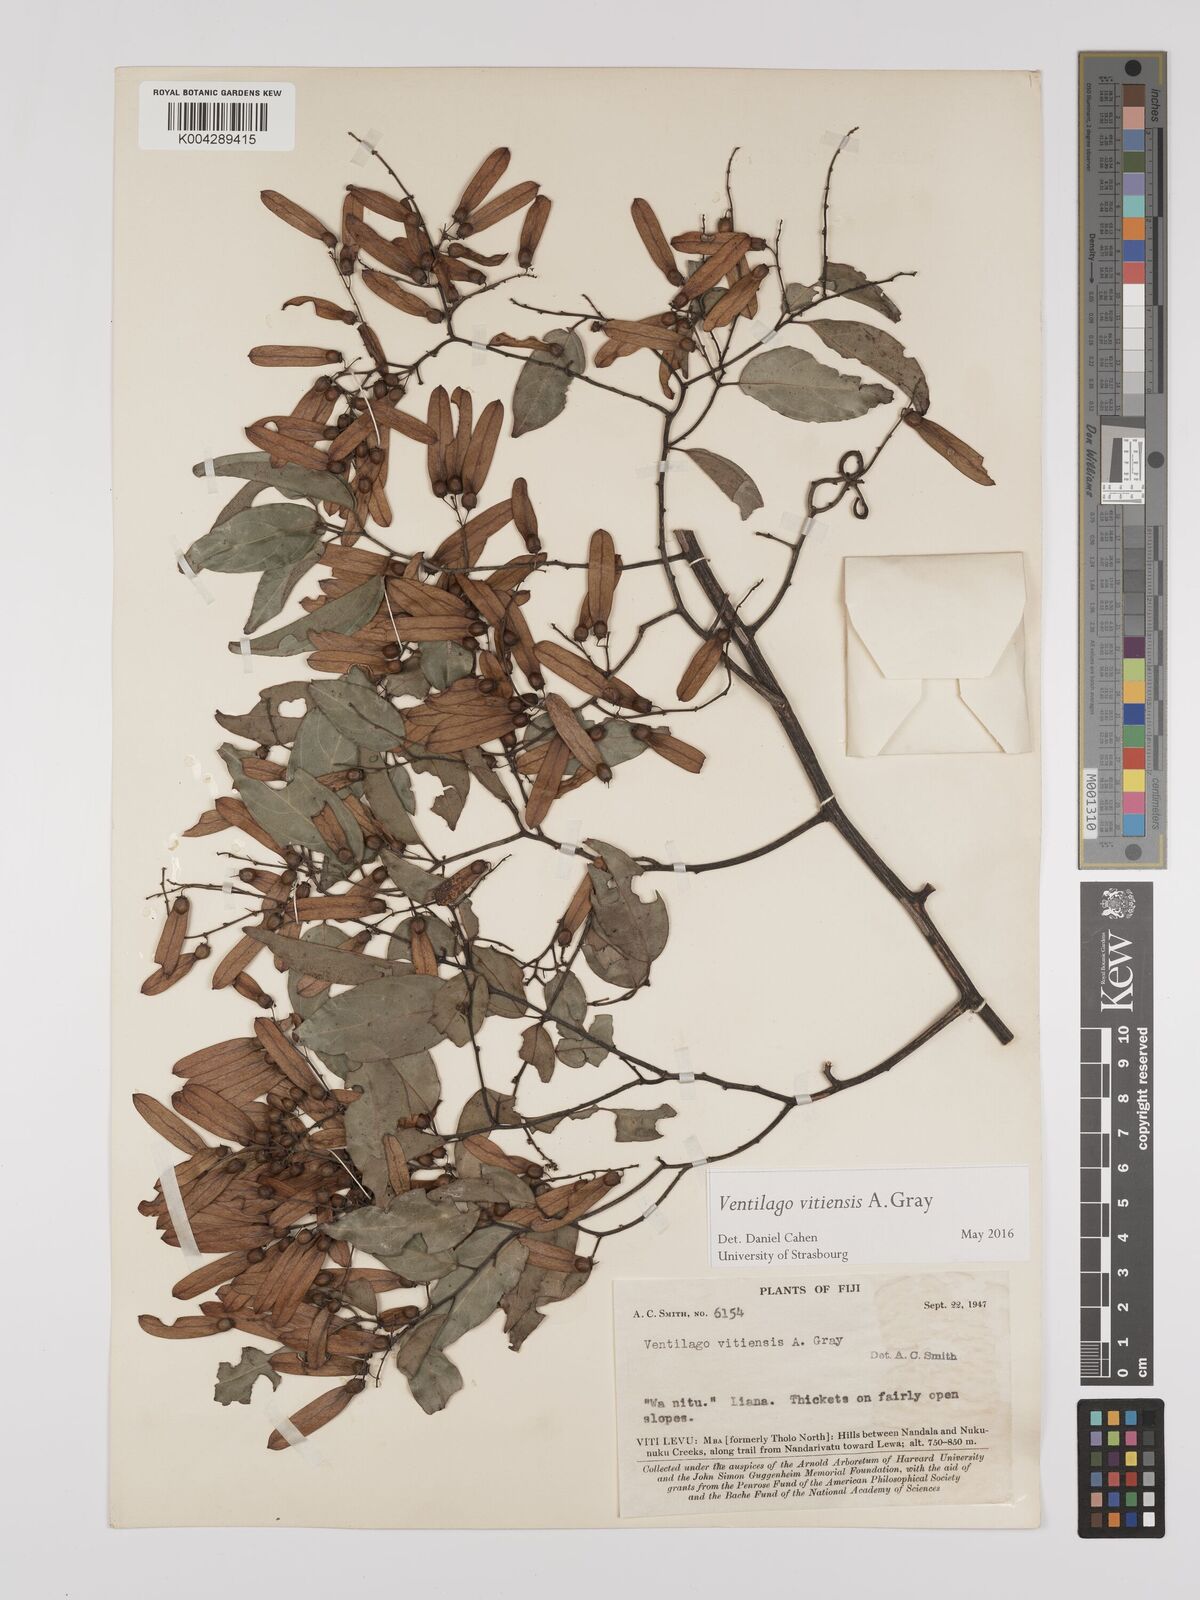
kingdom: Plantae
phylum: Tracheophyta
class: Magnoliopsida
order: Rosales
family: Rhamnaceae
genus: Ventilago
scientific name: Ventilago vitiensis
